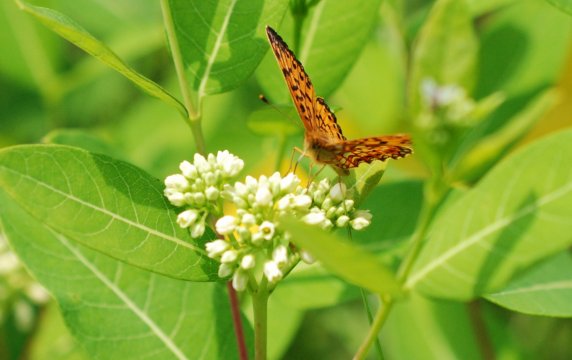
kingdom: Animalia
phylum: Arthropoda
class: Insecta
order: Lepidoptera
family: Nymphalidae
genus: Boloria
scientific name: Boloria selene
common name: Silver-bordered Fritillary
